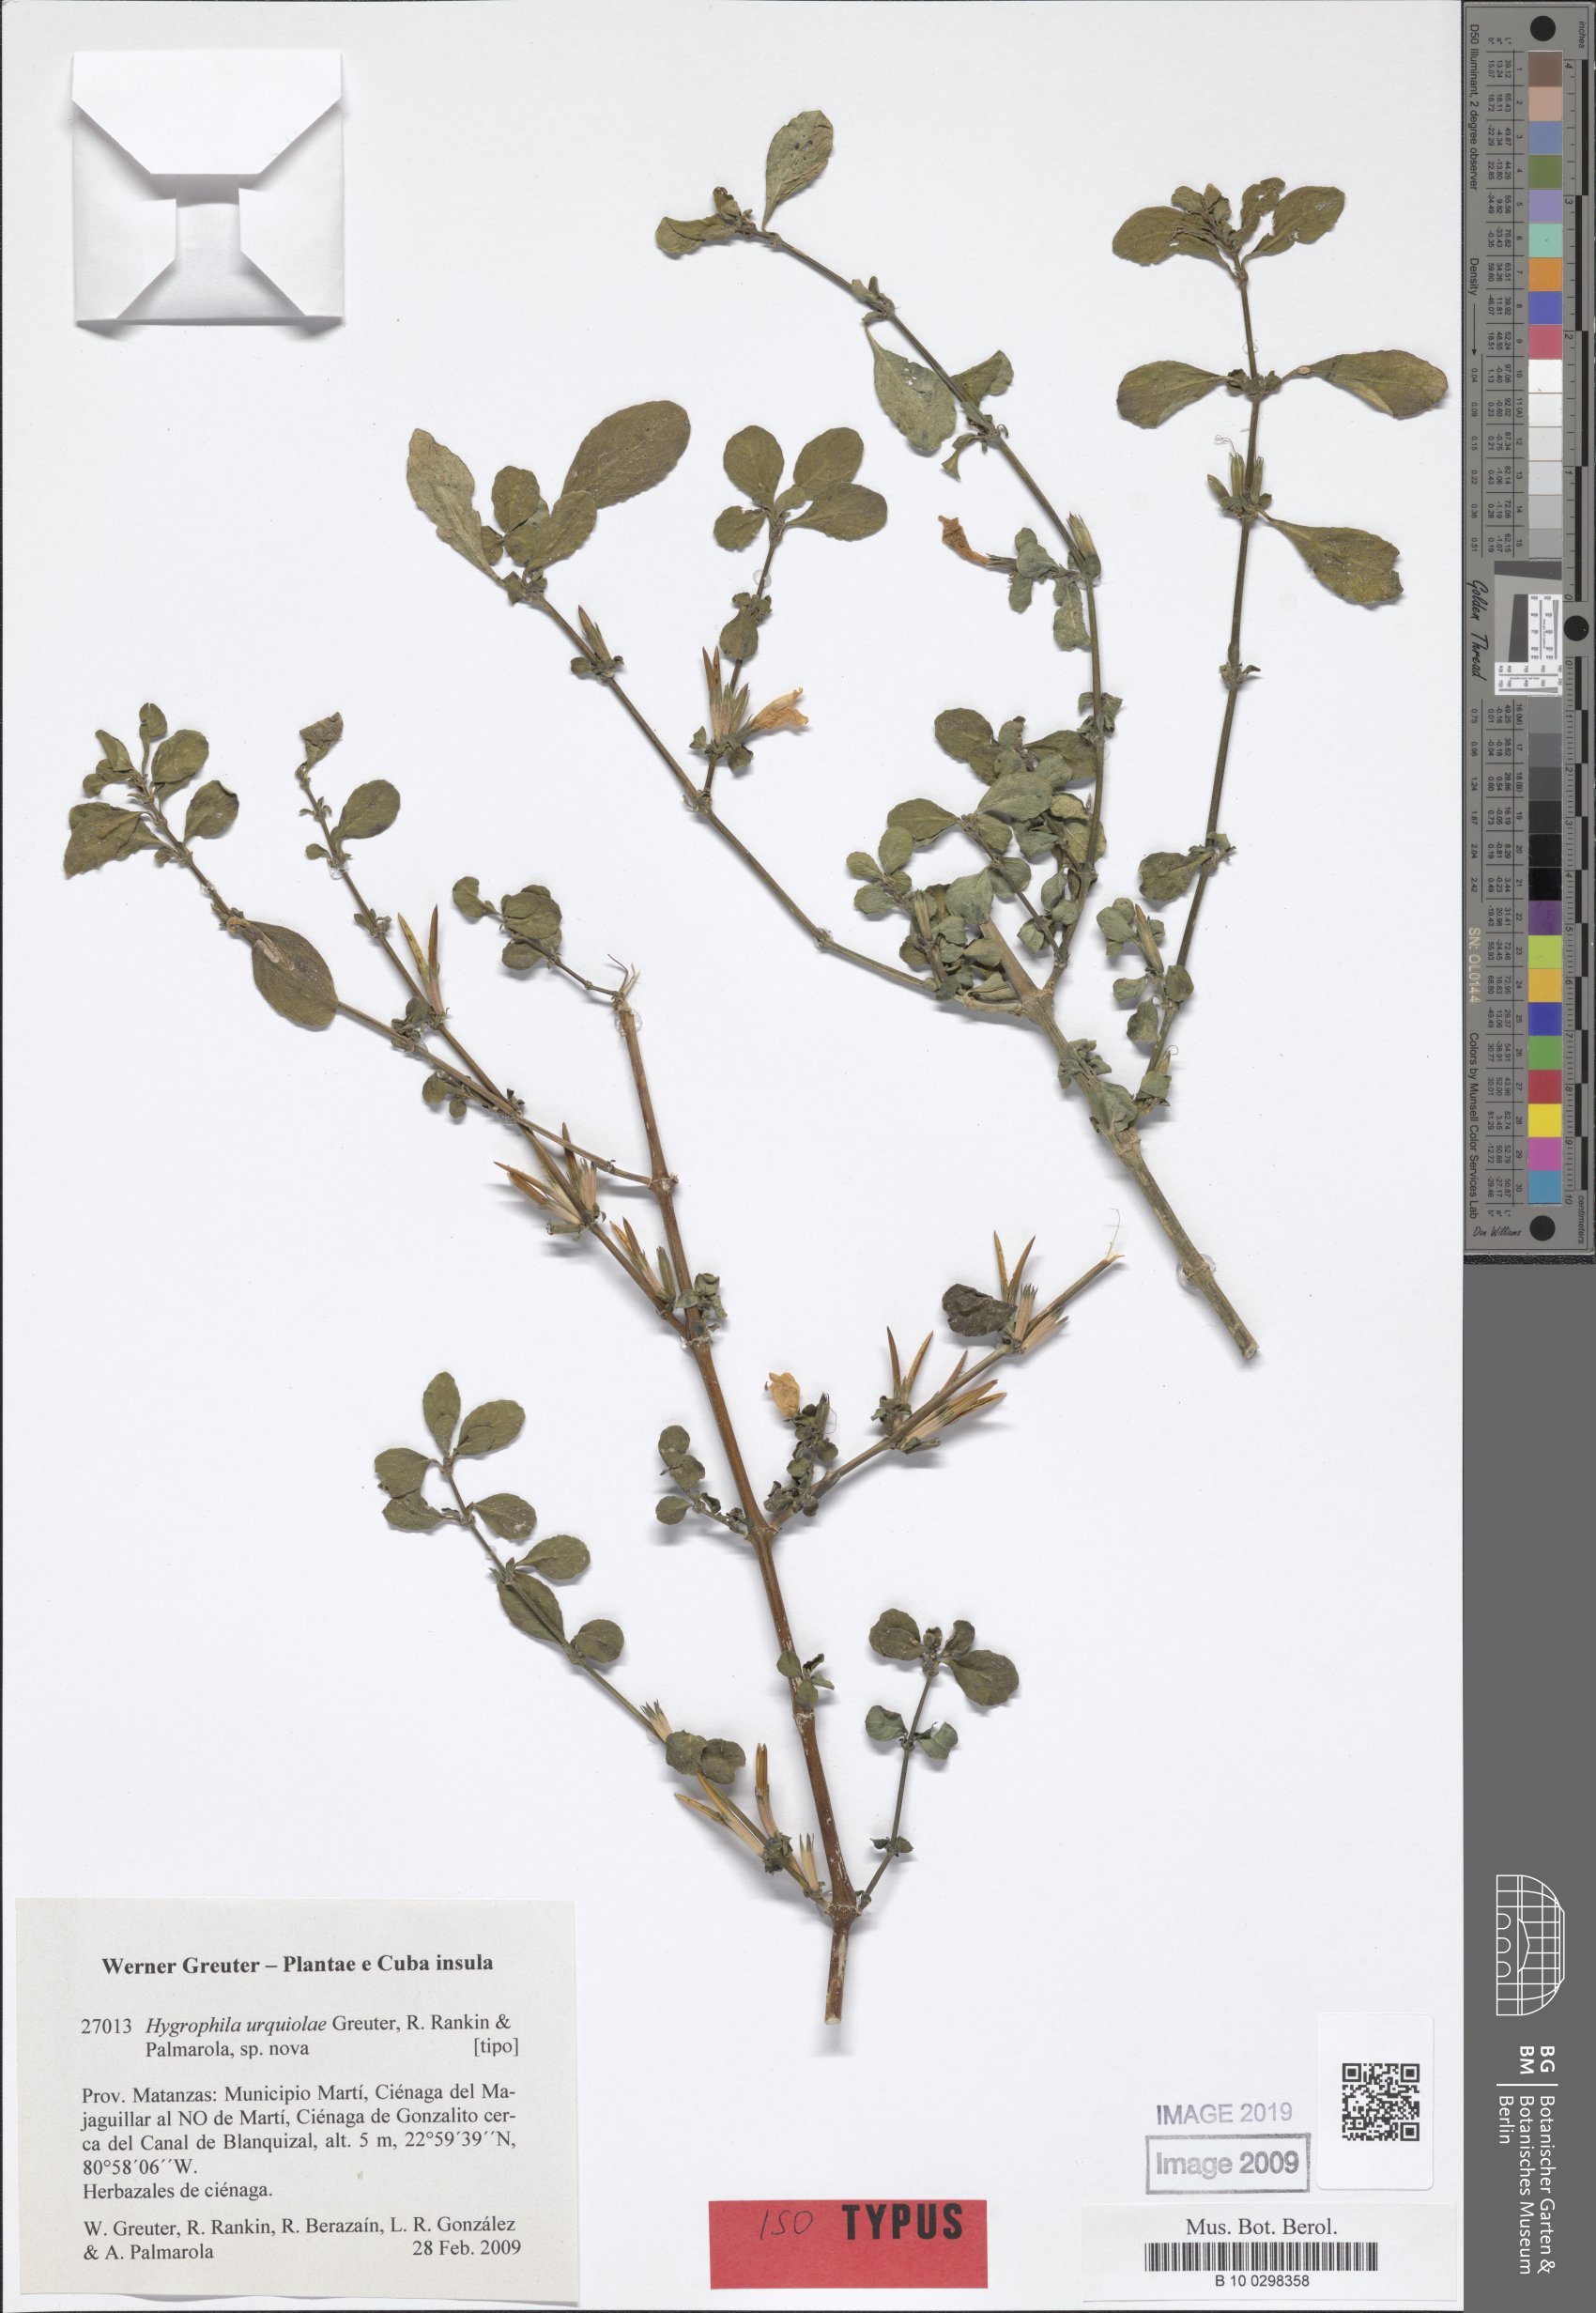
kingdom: Plantae
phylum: Tracheophyta
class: Magnoliopsida
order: Lamiales
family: Acanthaceae
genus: Hygrophila
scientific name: Hygrophila urquiolae
